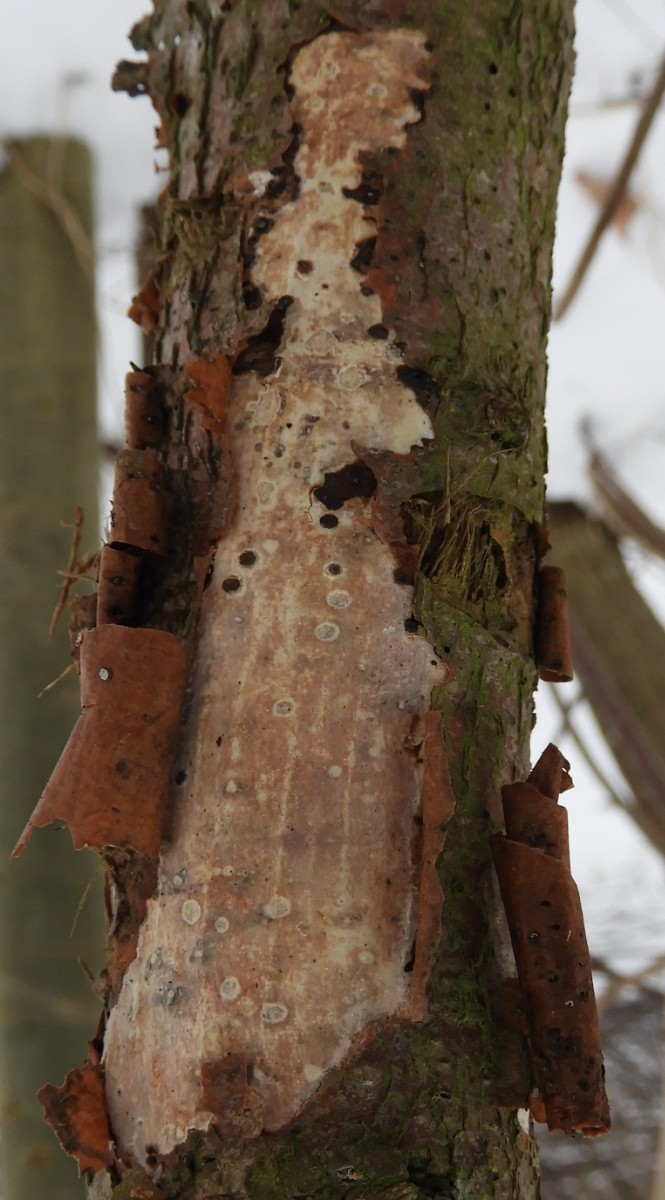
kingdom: Fungi
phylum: Basidiomycota
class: Agaricomycetes
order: Corticiales
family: Vuilleminiaceae
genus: Vuilleminia
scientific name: Vuilleminia comedens
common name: almindelig barksprænger
